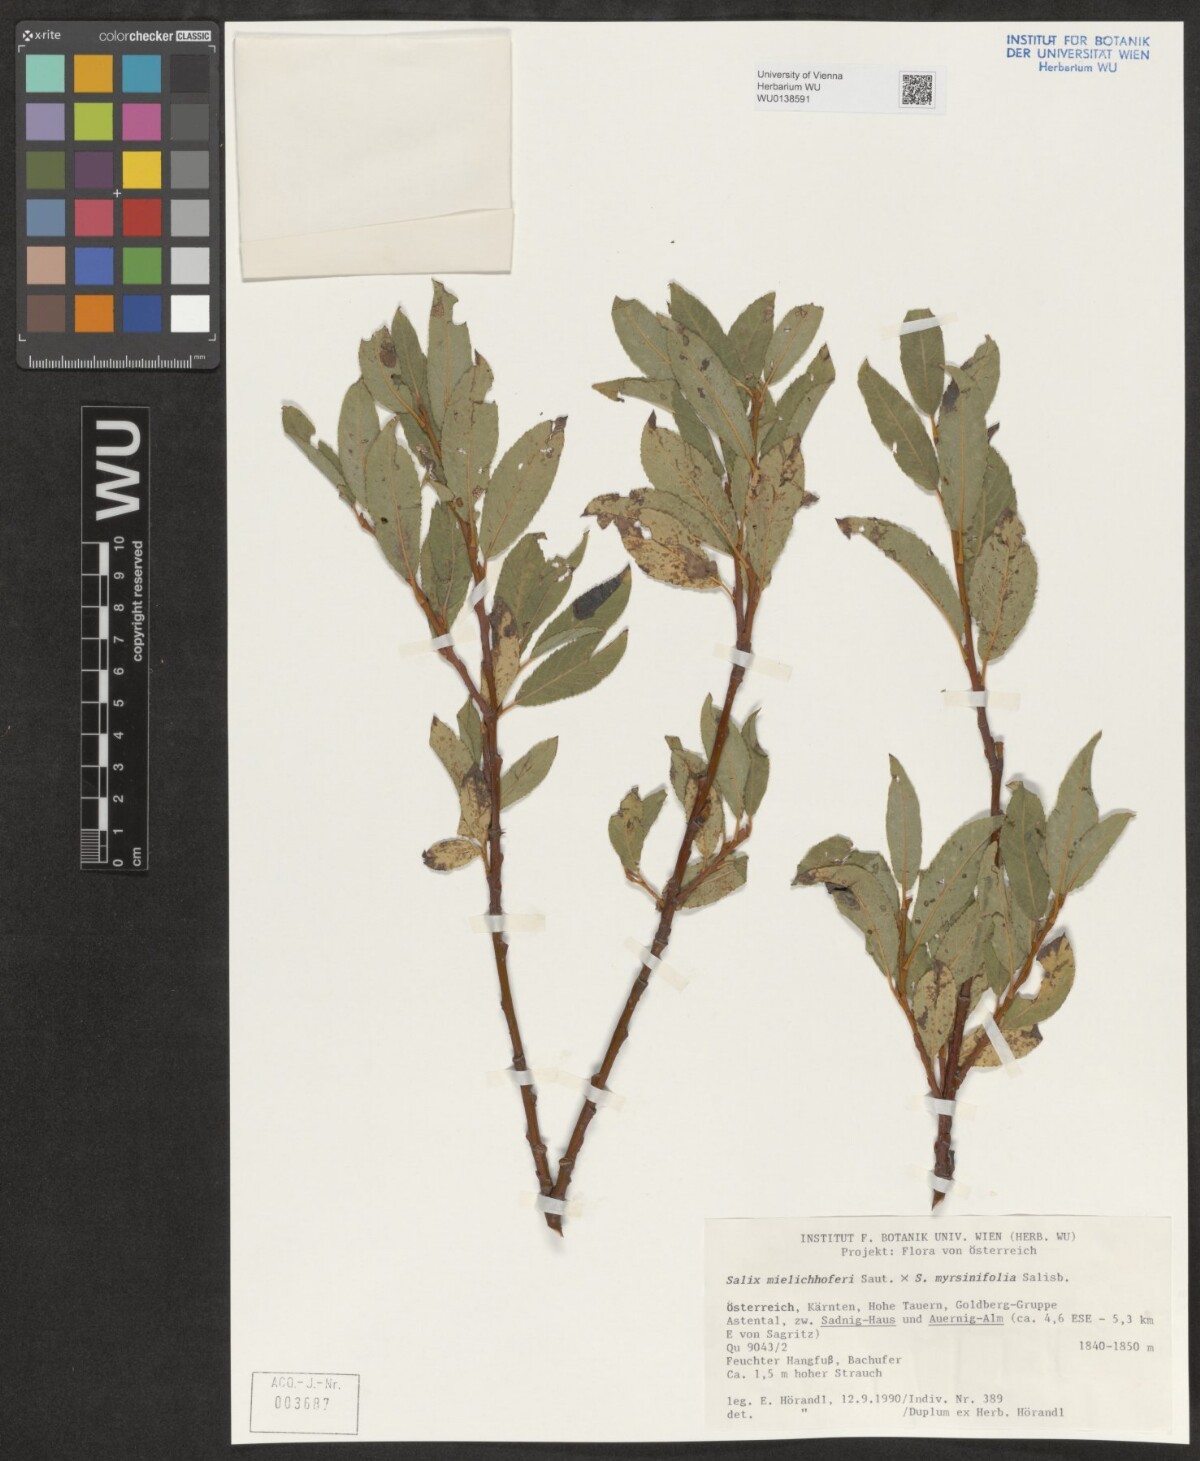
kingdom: Plantae
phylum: Tracheophyta
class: Magnoliopsida
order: Malpighiales
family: Salicaceae
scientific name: Salicaceae
